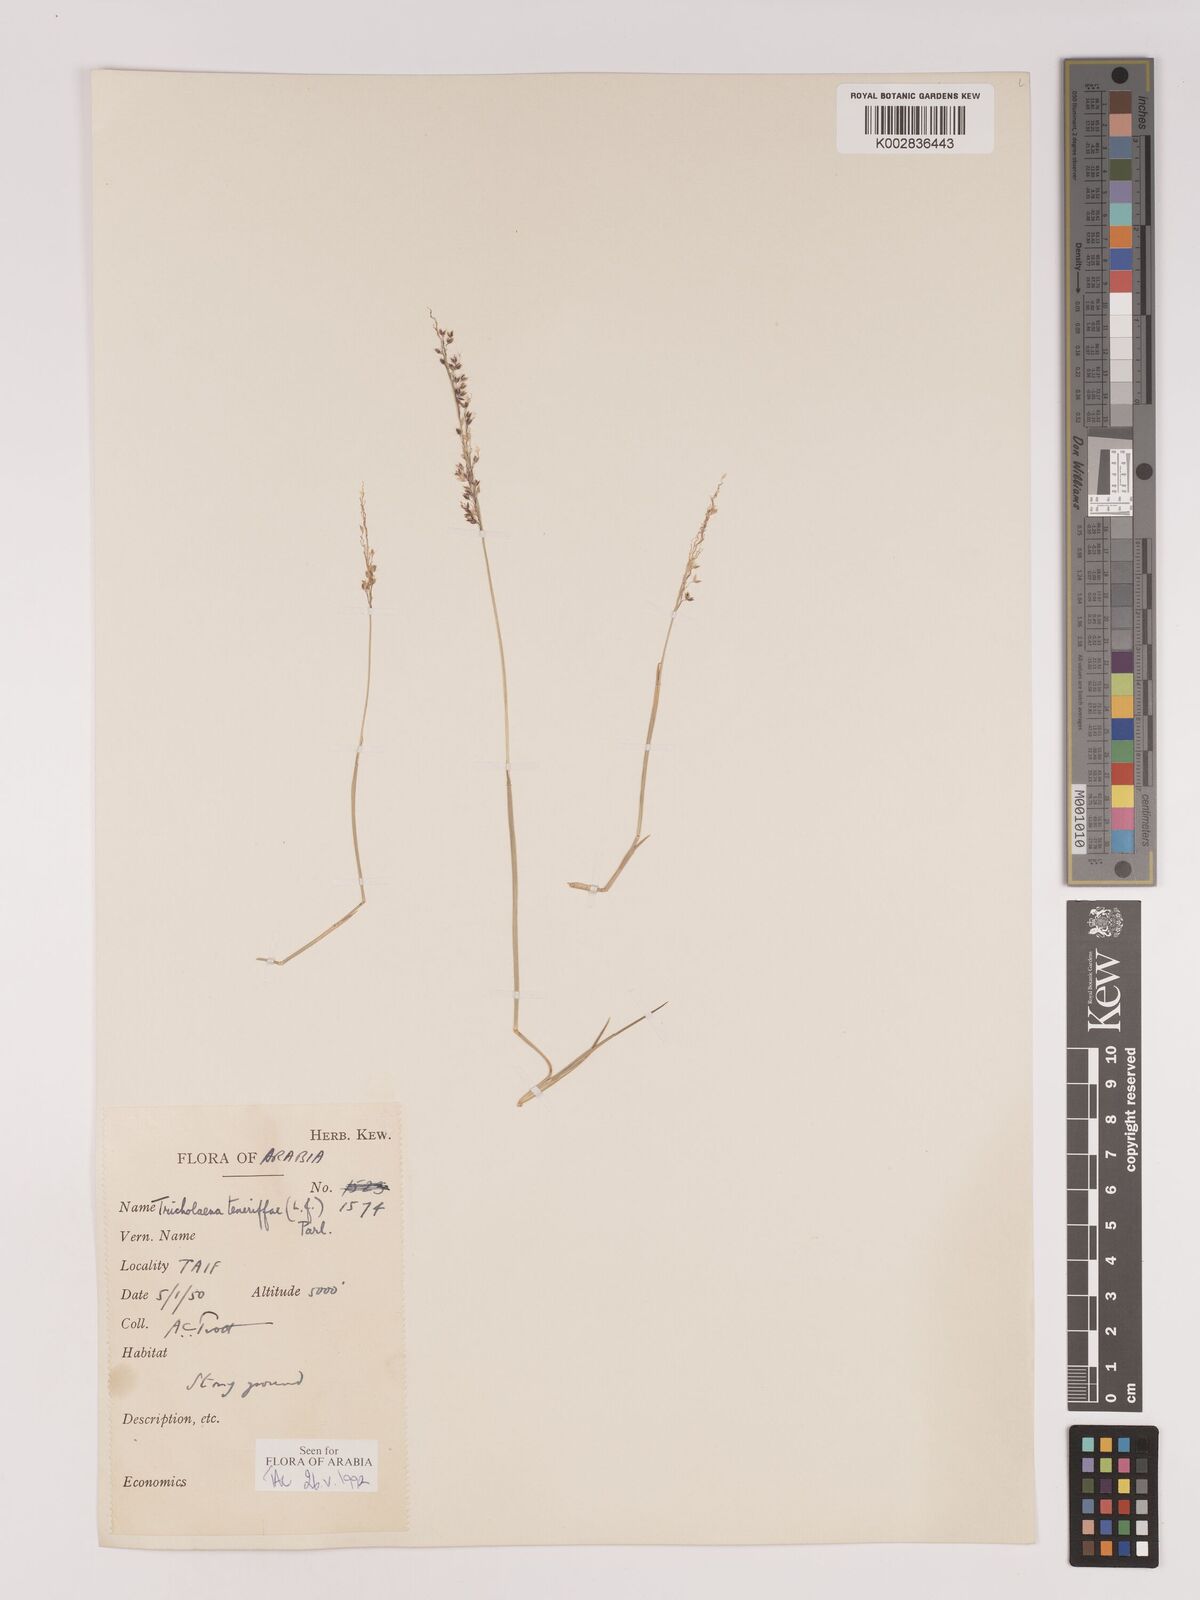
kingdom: Plantae
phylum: Tracheophyta
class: Liliopsida
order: Poales
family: Poaceae
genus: Tricholaena
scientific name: Tricholaena teneriffae
